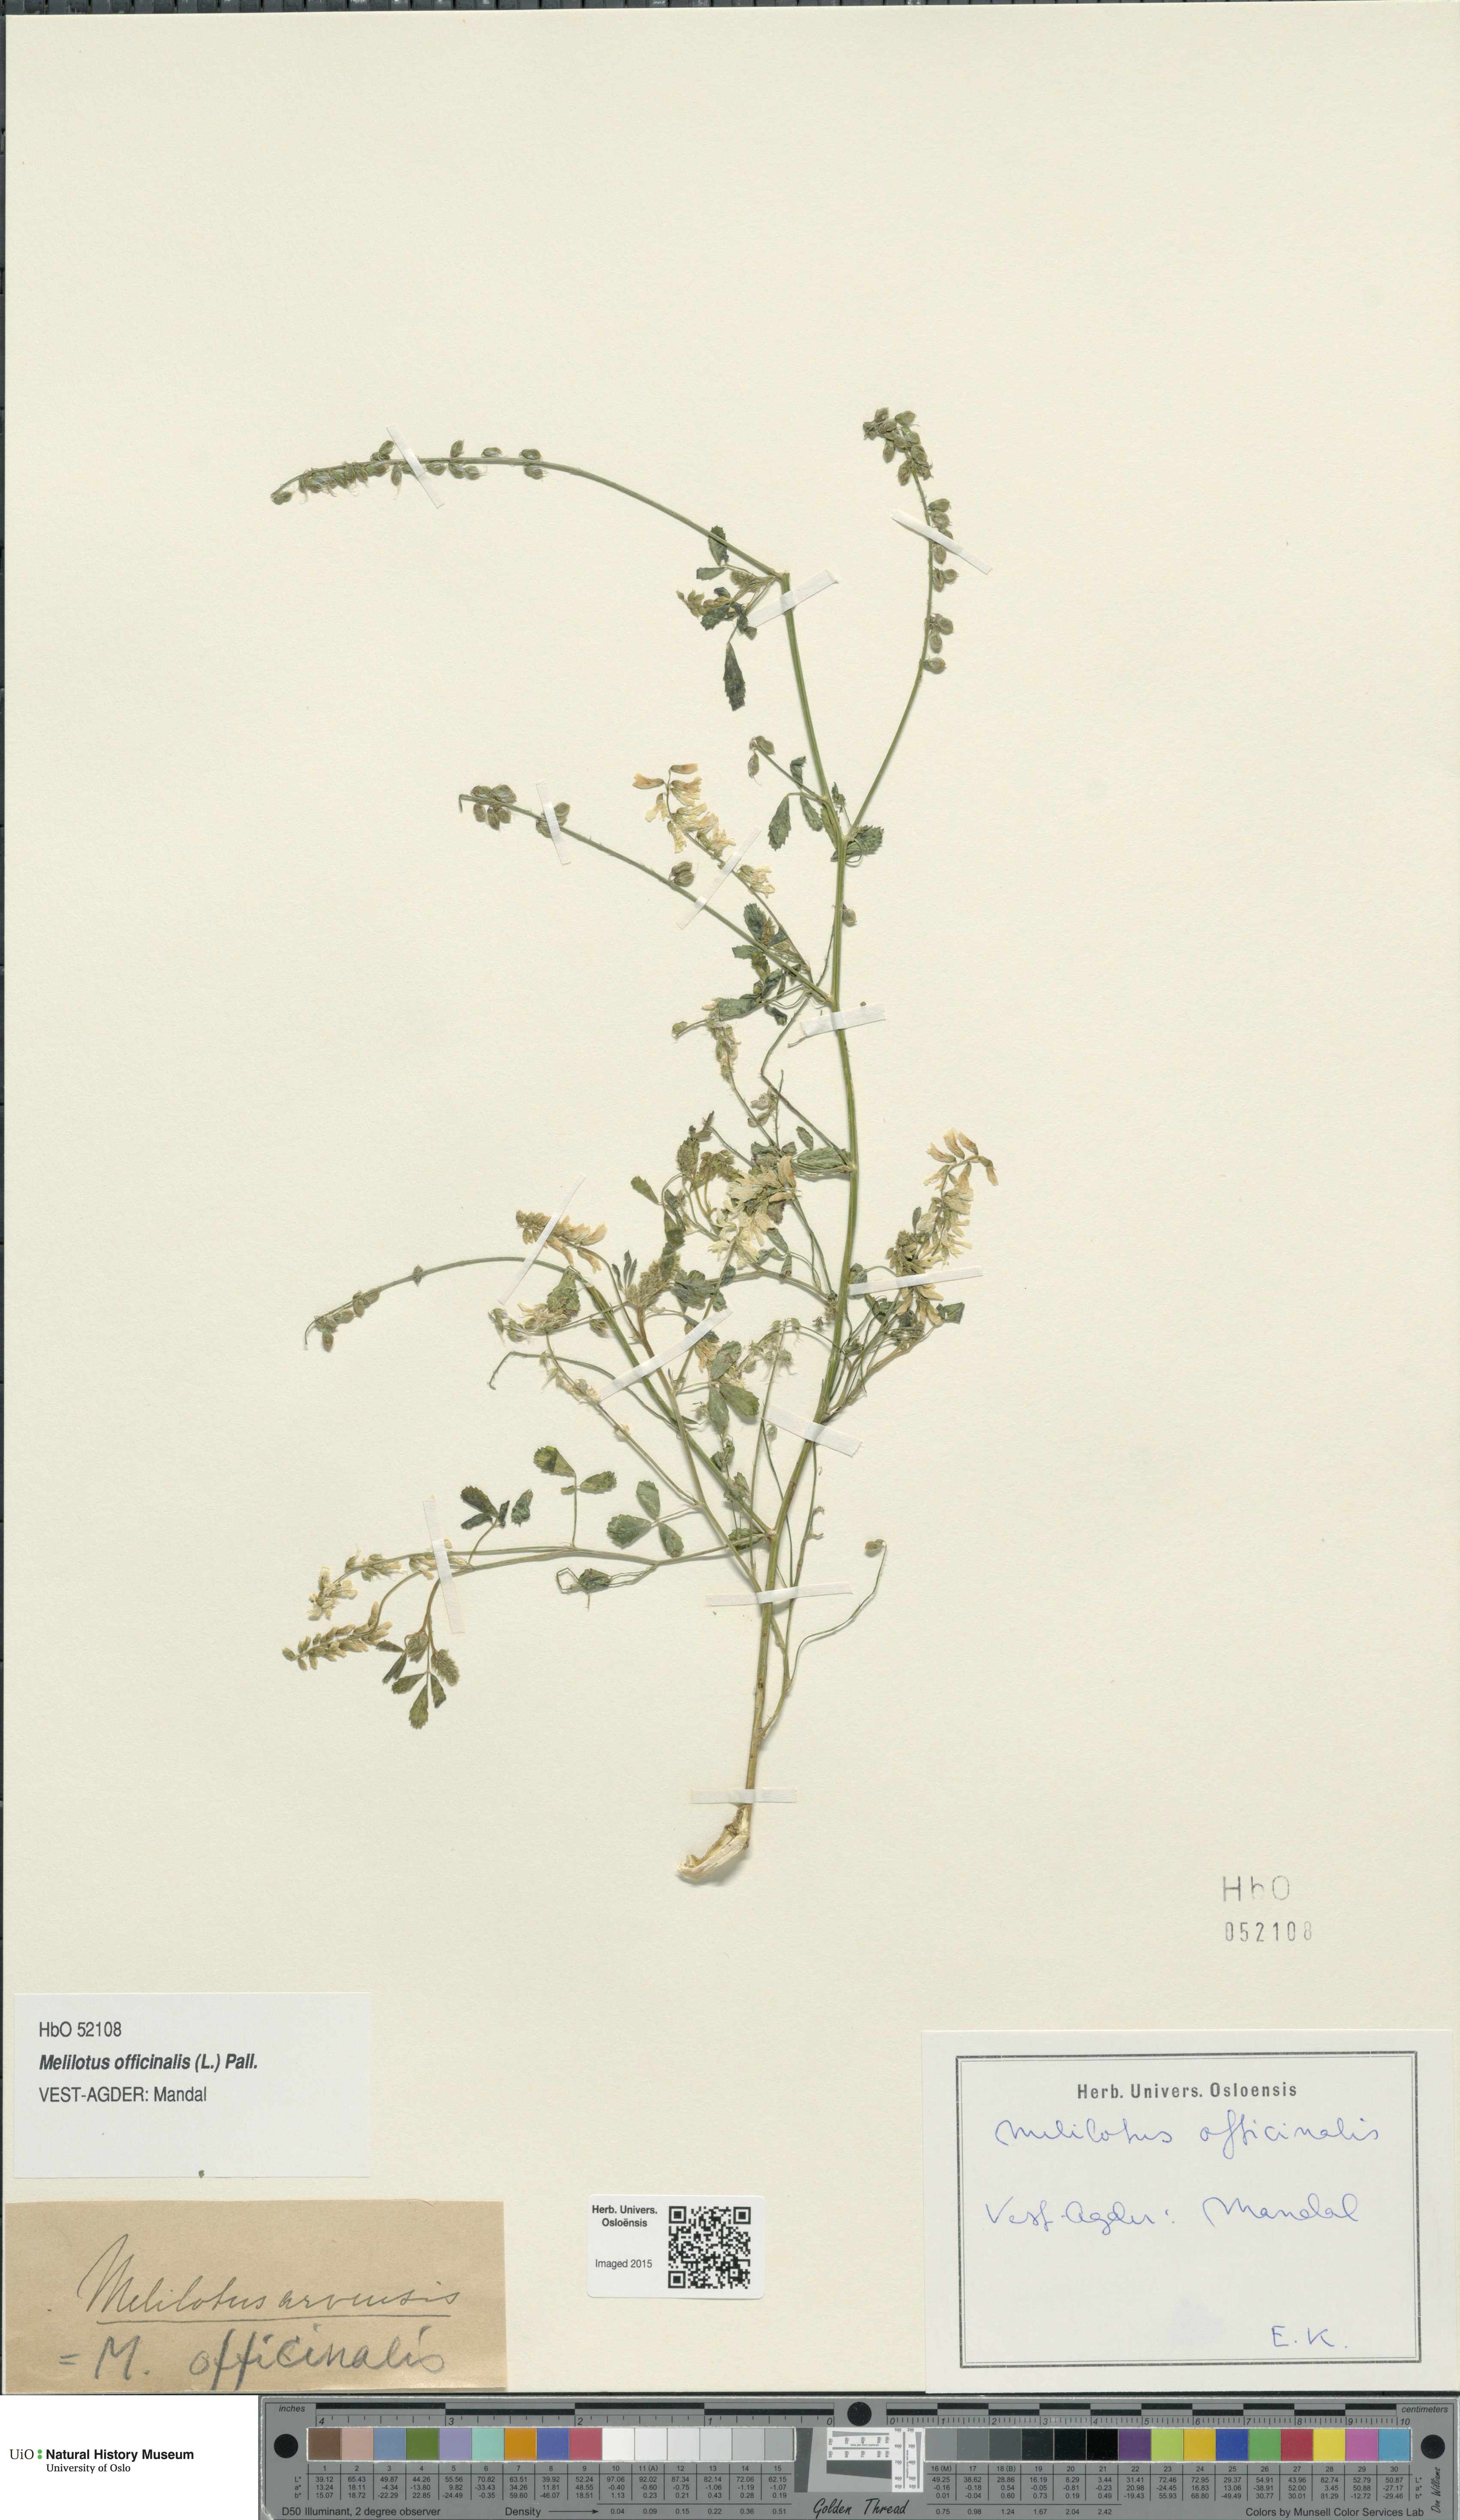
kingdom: Plantae
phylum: Tracheophyta
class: Magnoliopsida
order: Fabales
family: Fabaceae
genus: Melilotus
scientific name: Melilotus officinalis
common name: Sweetclover
